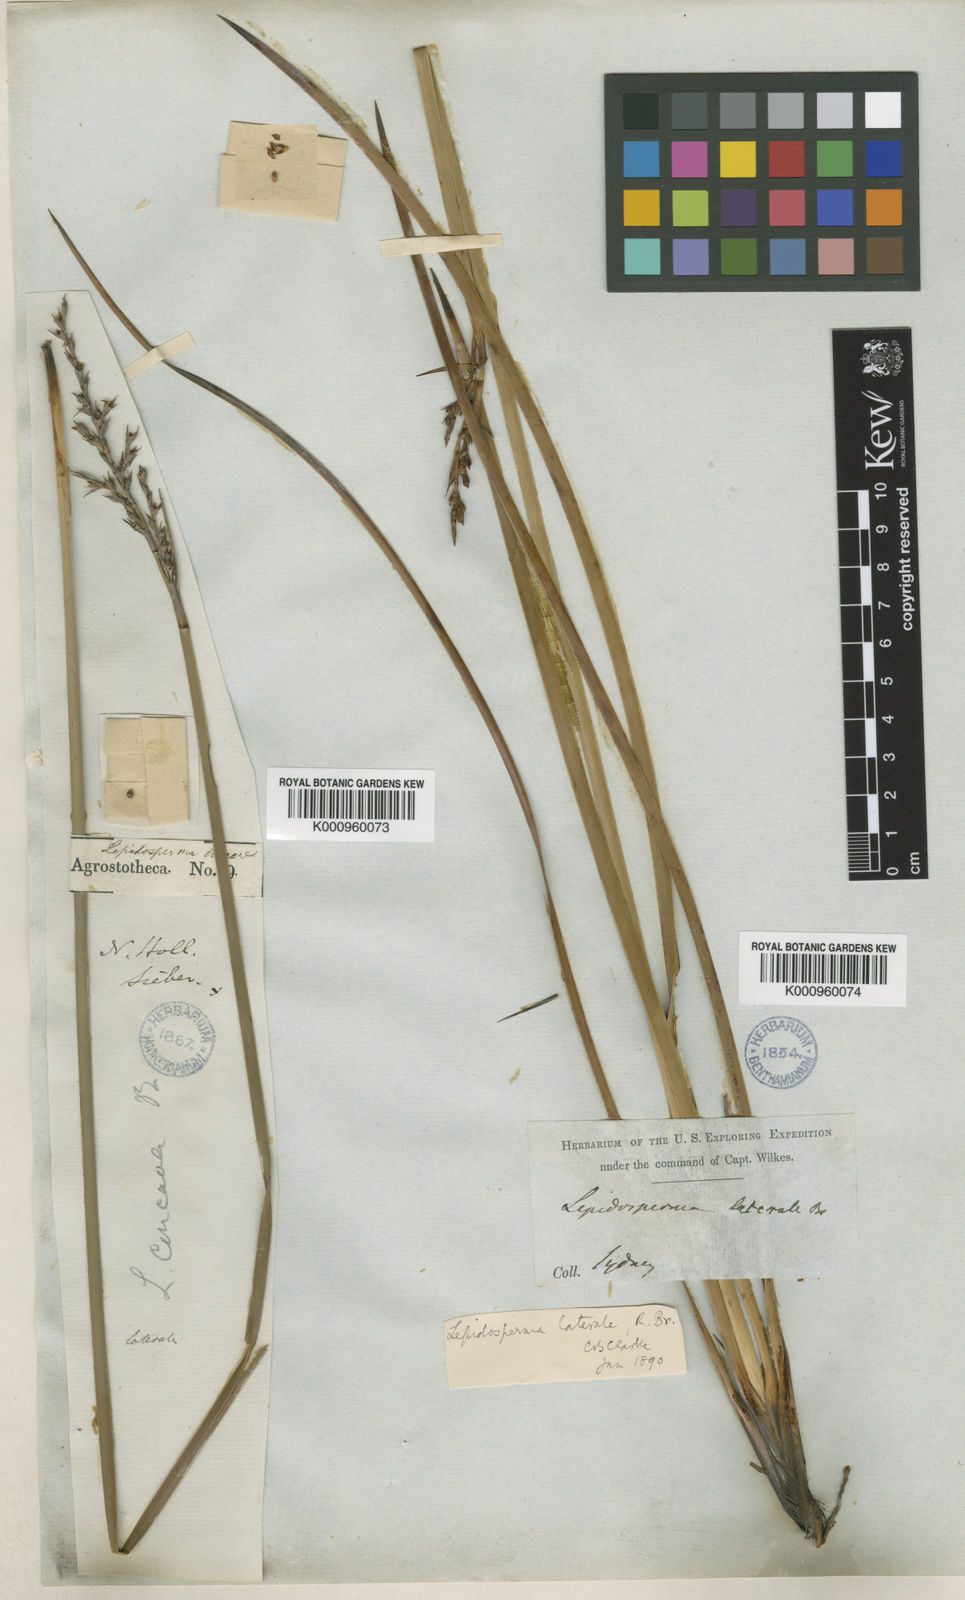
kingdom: Plantae
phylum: Tracheophyta
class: Liliopsida
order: Poales
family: Cyperaceae
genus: Lepidosperma
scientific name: Lepidosperma laterale
